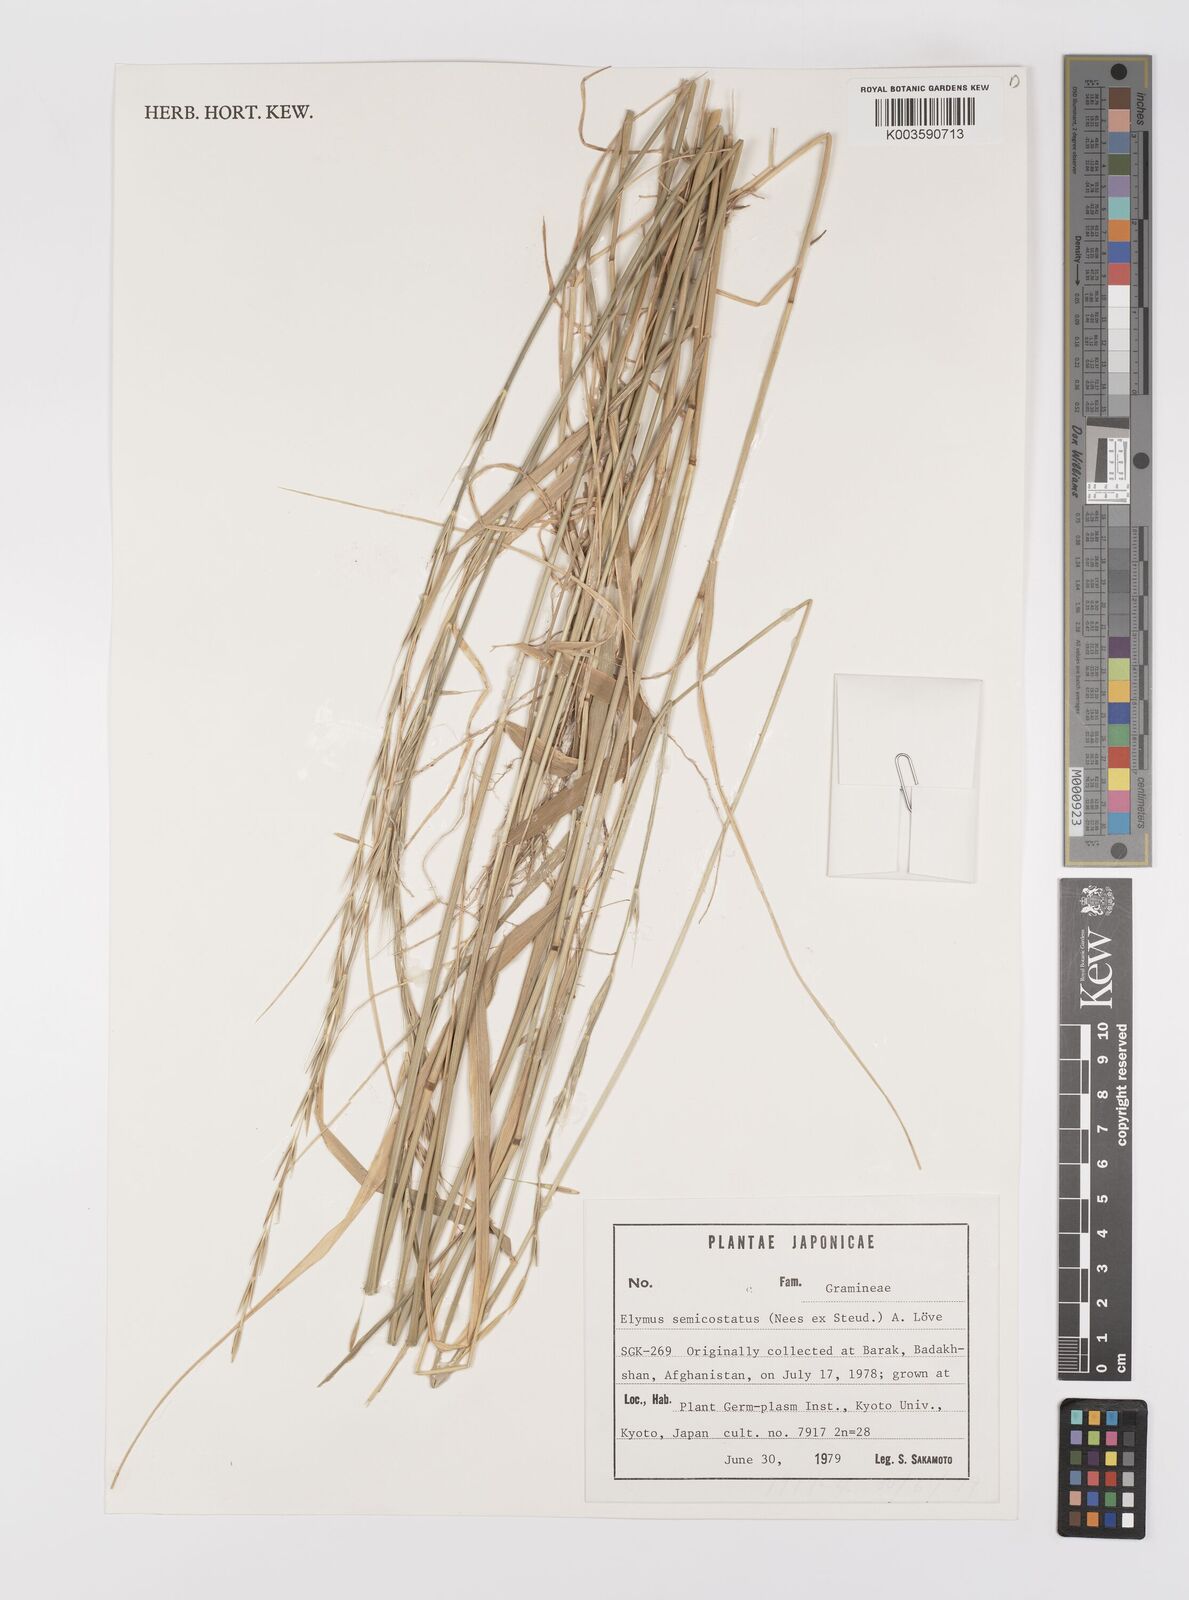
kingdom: Plantae
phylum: Tracheophyta
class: Liliopsida
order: Poales
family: Poaceae
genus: Elymus
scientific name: Elymus semicostatus
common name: Drooping wildrye
